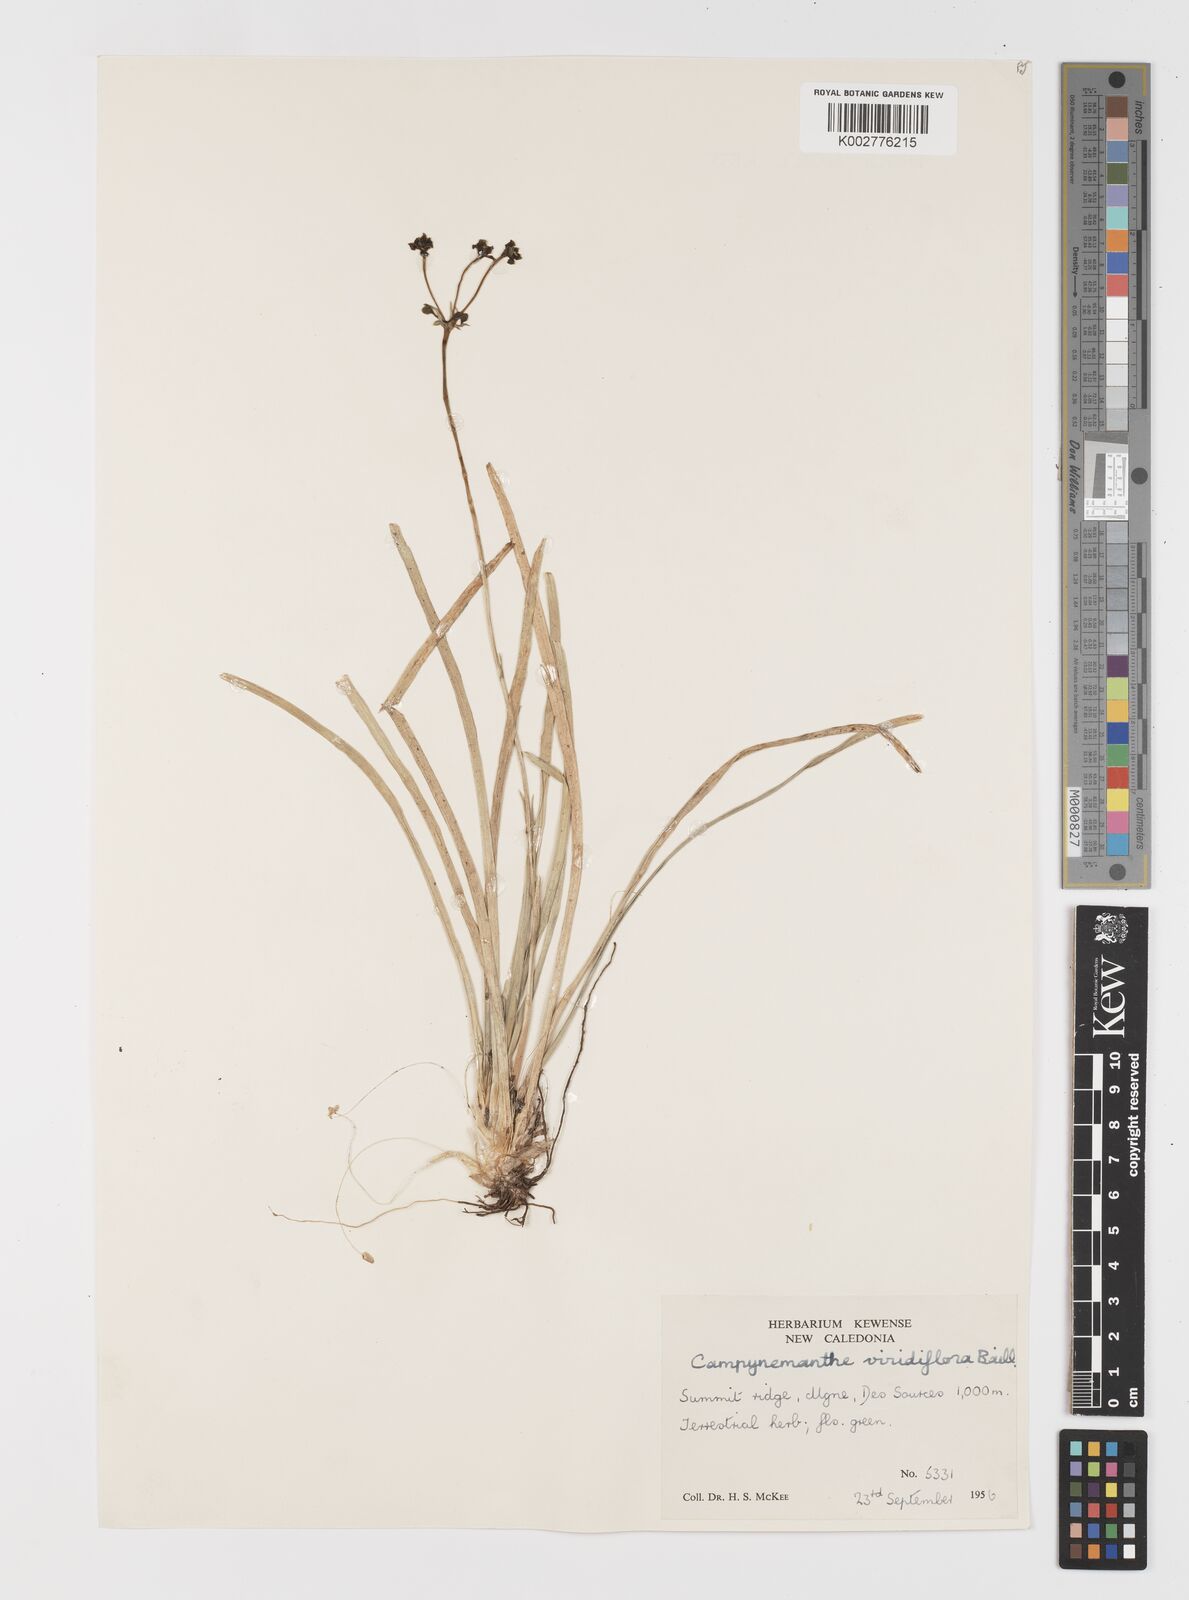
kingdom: Plantae
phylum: Tracheophyta
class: Liliopsida
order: Liliales
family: Campynemataceae
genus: Campynemanthe
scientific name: Campynemanthe viridiflora
